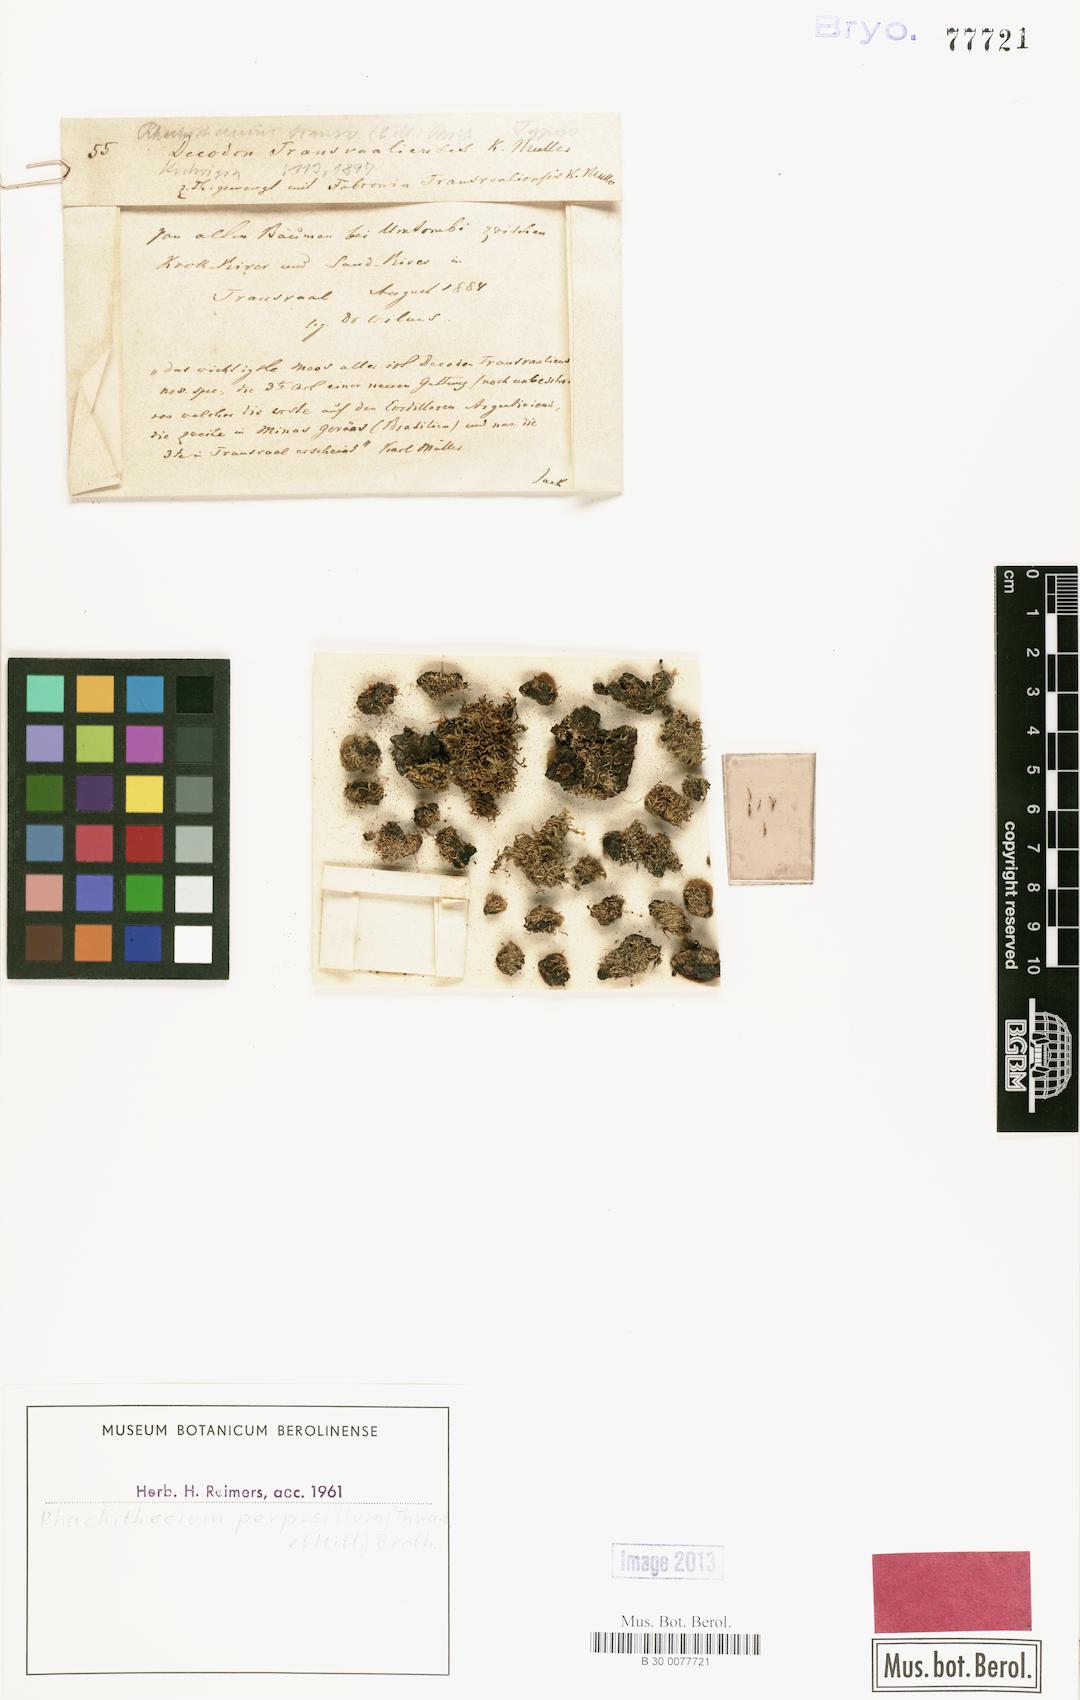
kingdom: Plantae
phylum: Bryophyta
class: Bryopsida
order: Dicranales
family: Rhachitheciaceae
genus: Rhachithecium
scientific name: Rhachithecium perpusillum
